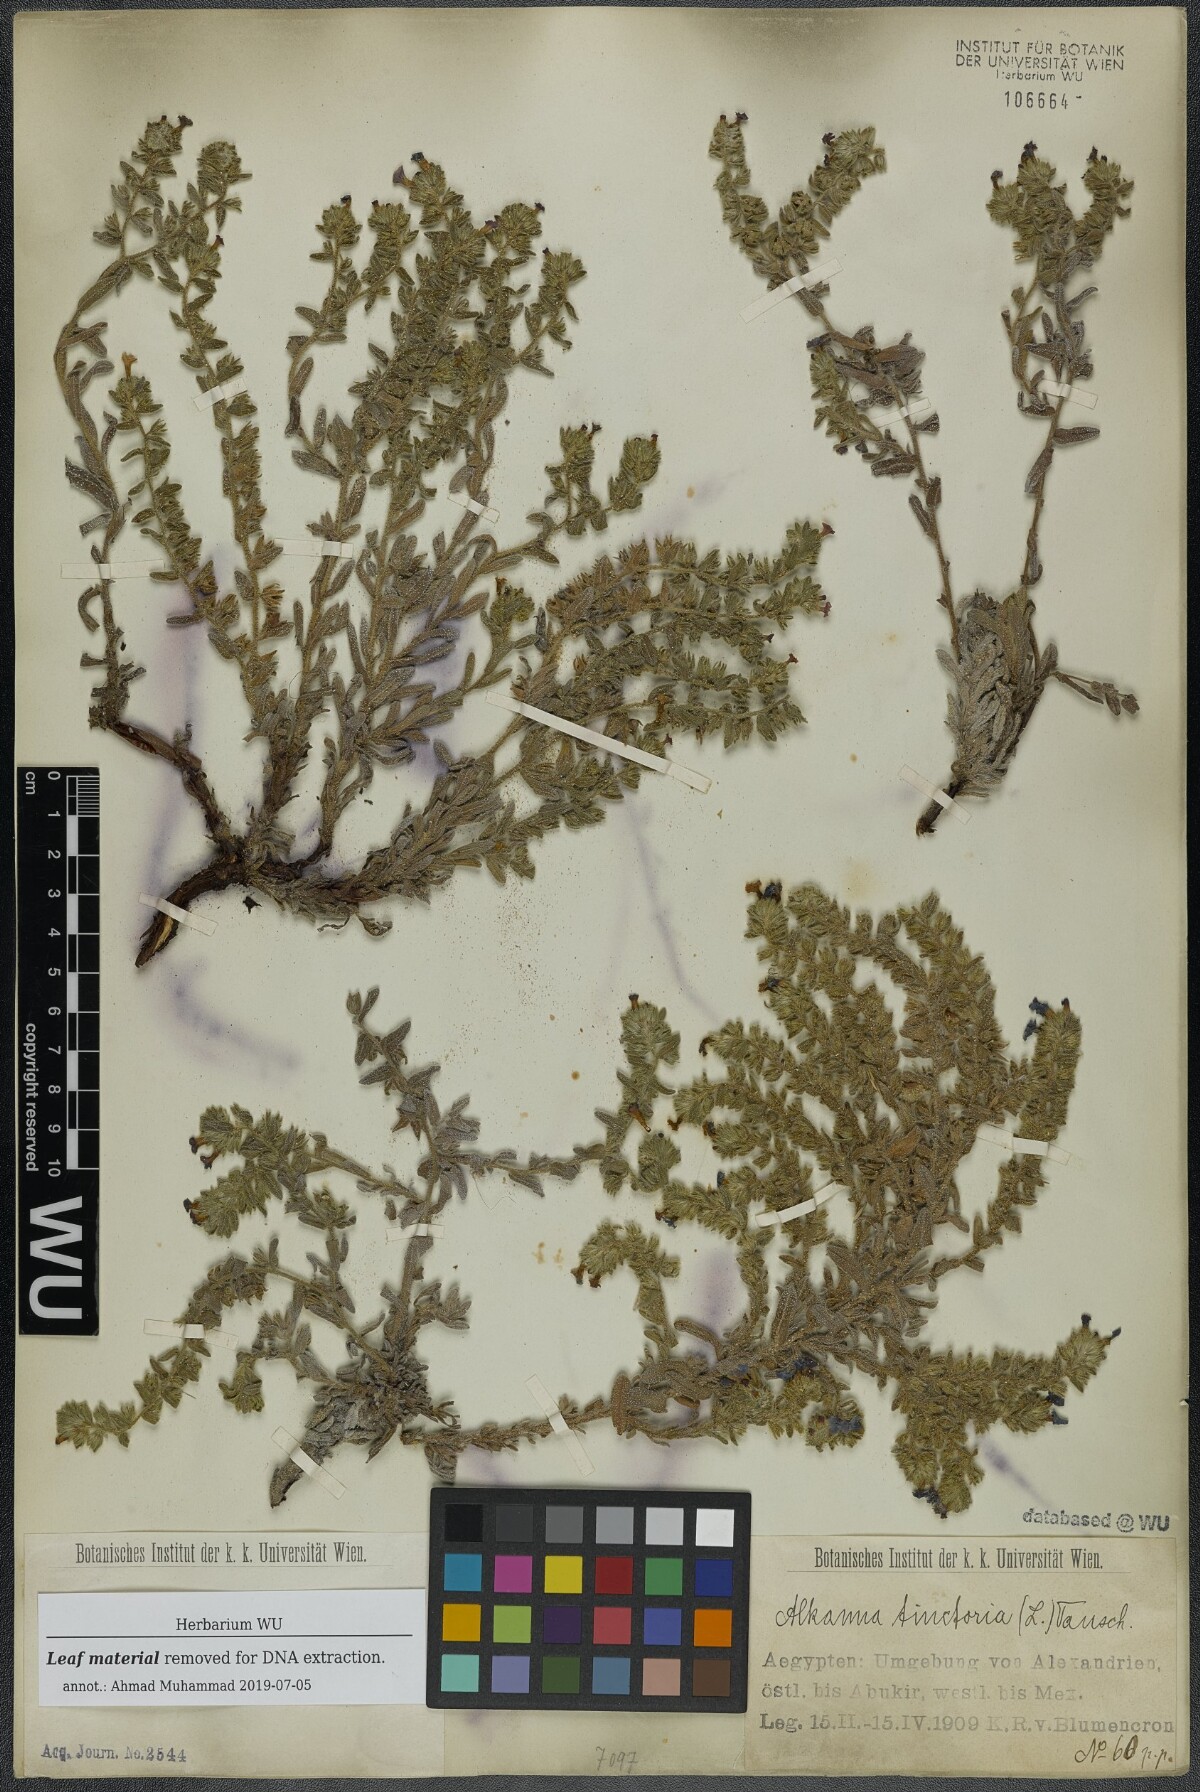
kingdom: Plantae
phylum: Tracheophyta
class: Magnoliopsida
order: Boraginales
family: Boraginaceae
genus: Alkanna
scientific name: Alkanna tinctoria
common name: Dyer's-alkanet
